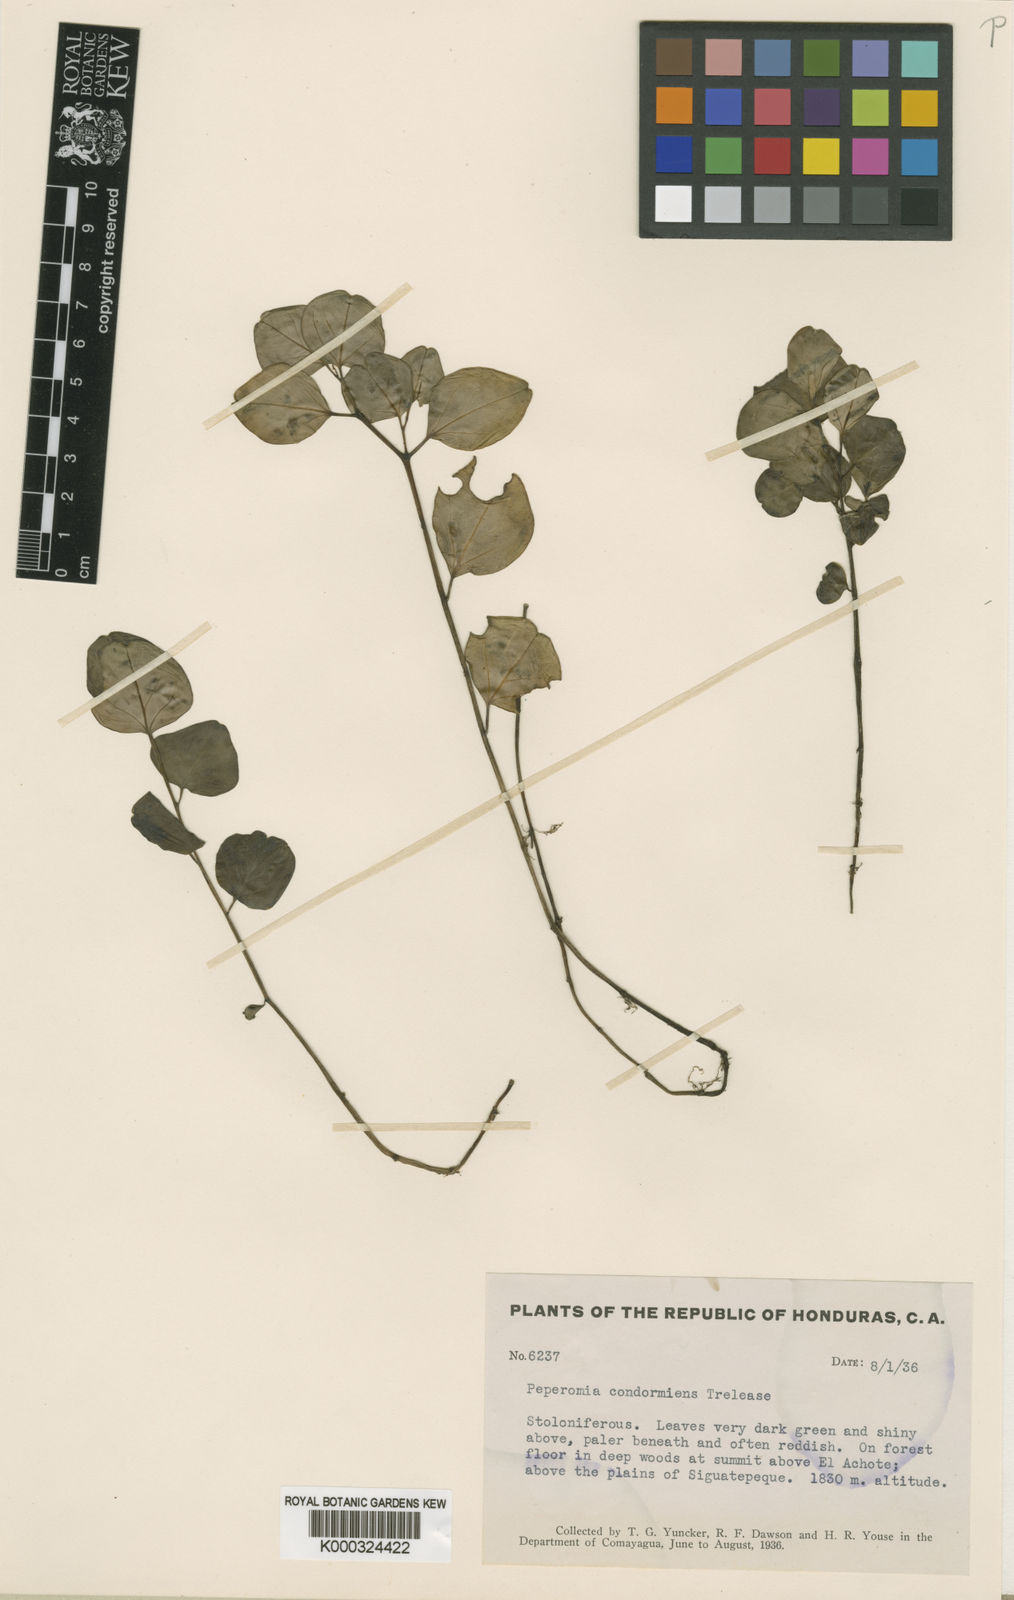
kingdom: Plantae
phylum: Tracheophyta
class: Magnoliopsida
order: Piperales
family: Piperaceae
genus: Peperomia
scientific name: Peperomia tenuipes
